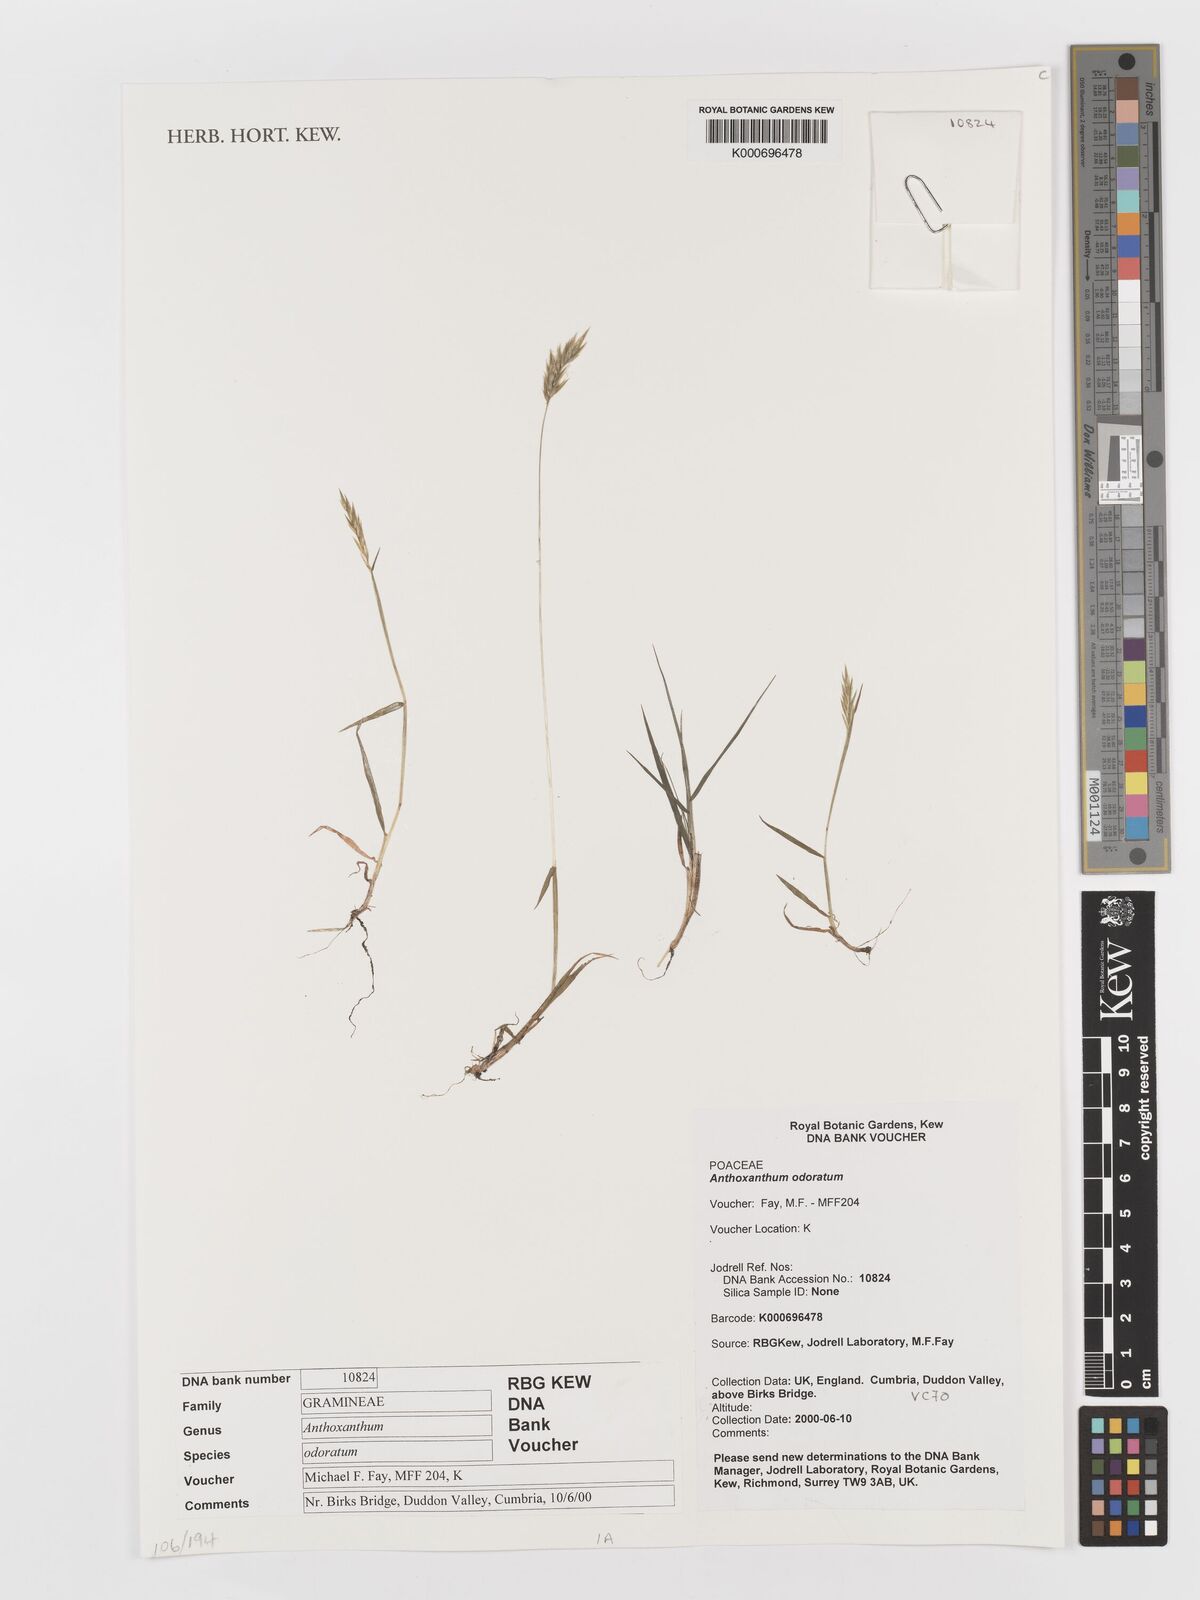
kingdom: Plantae
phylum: Tracheophyta
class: Liliopsida
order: Poales
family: Poaceae
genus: Anthoxanthum
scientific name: Anthoxanthum odoratum
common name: Sweet vernalgrass
